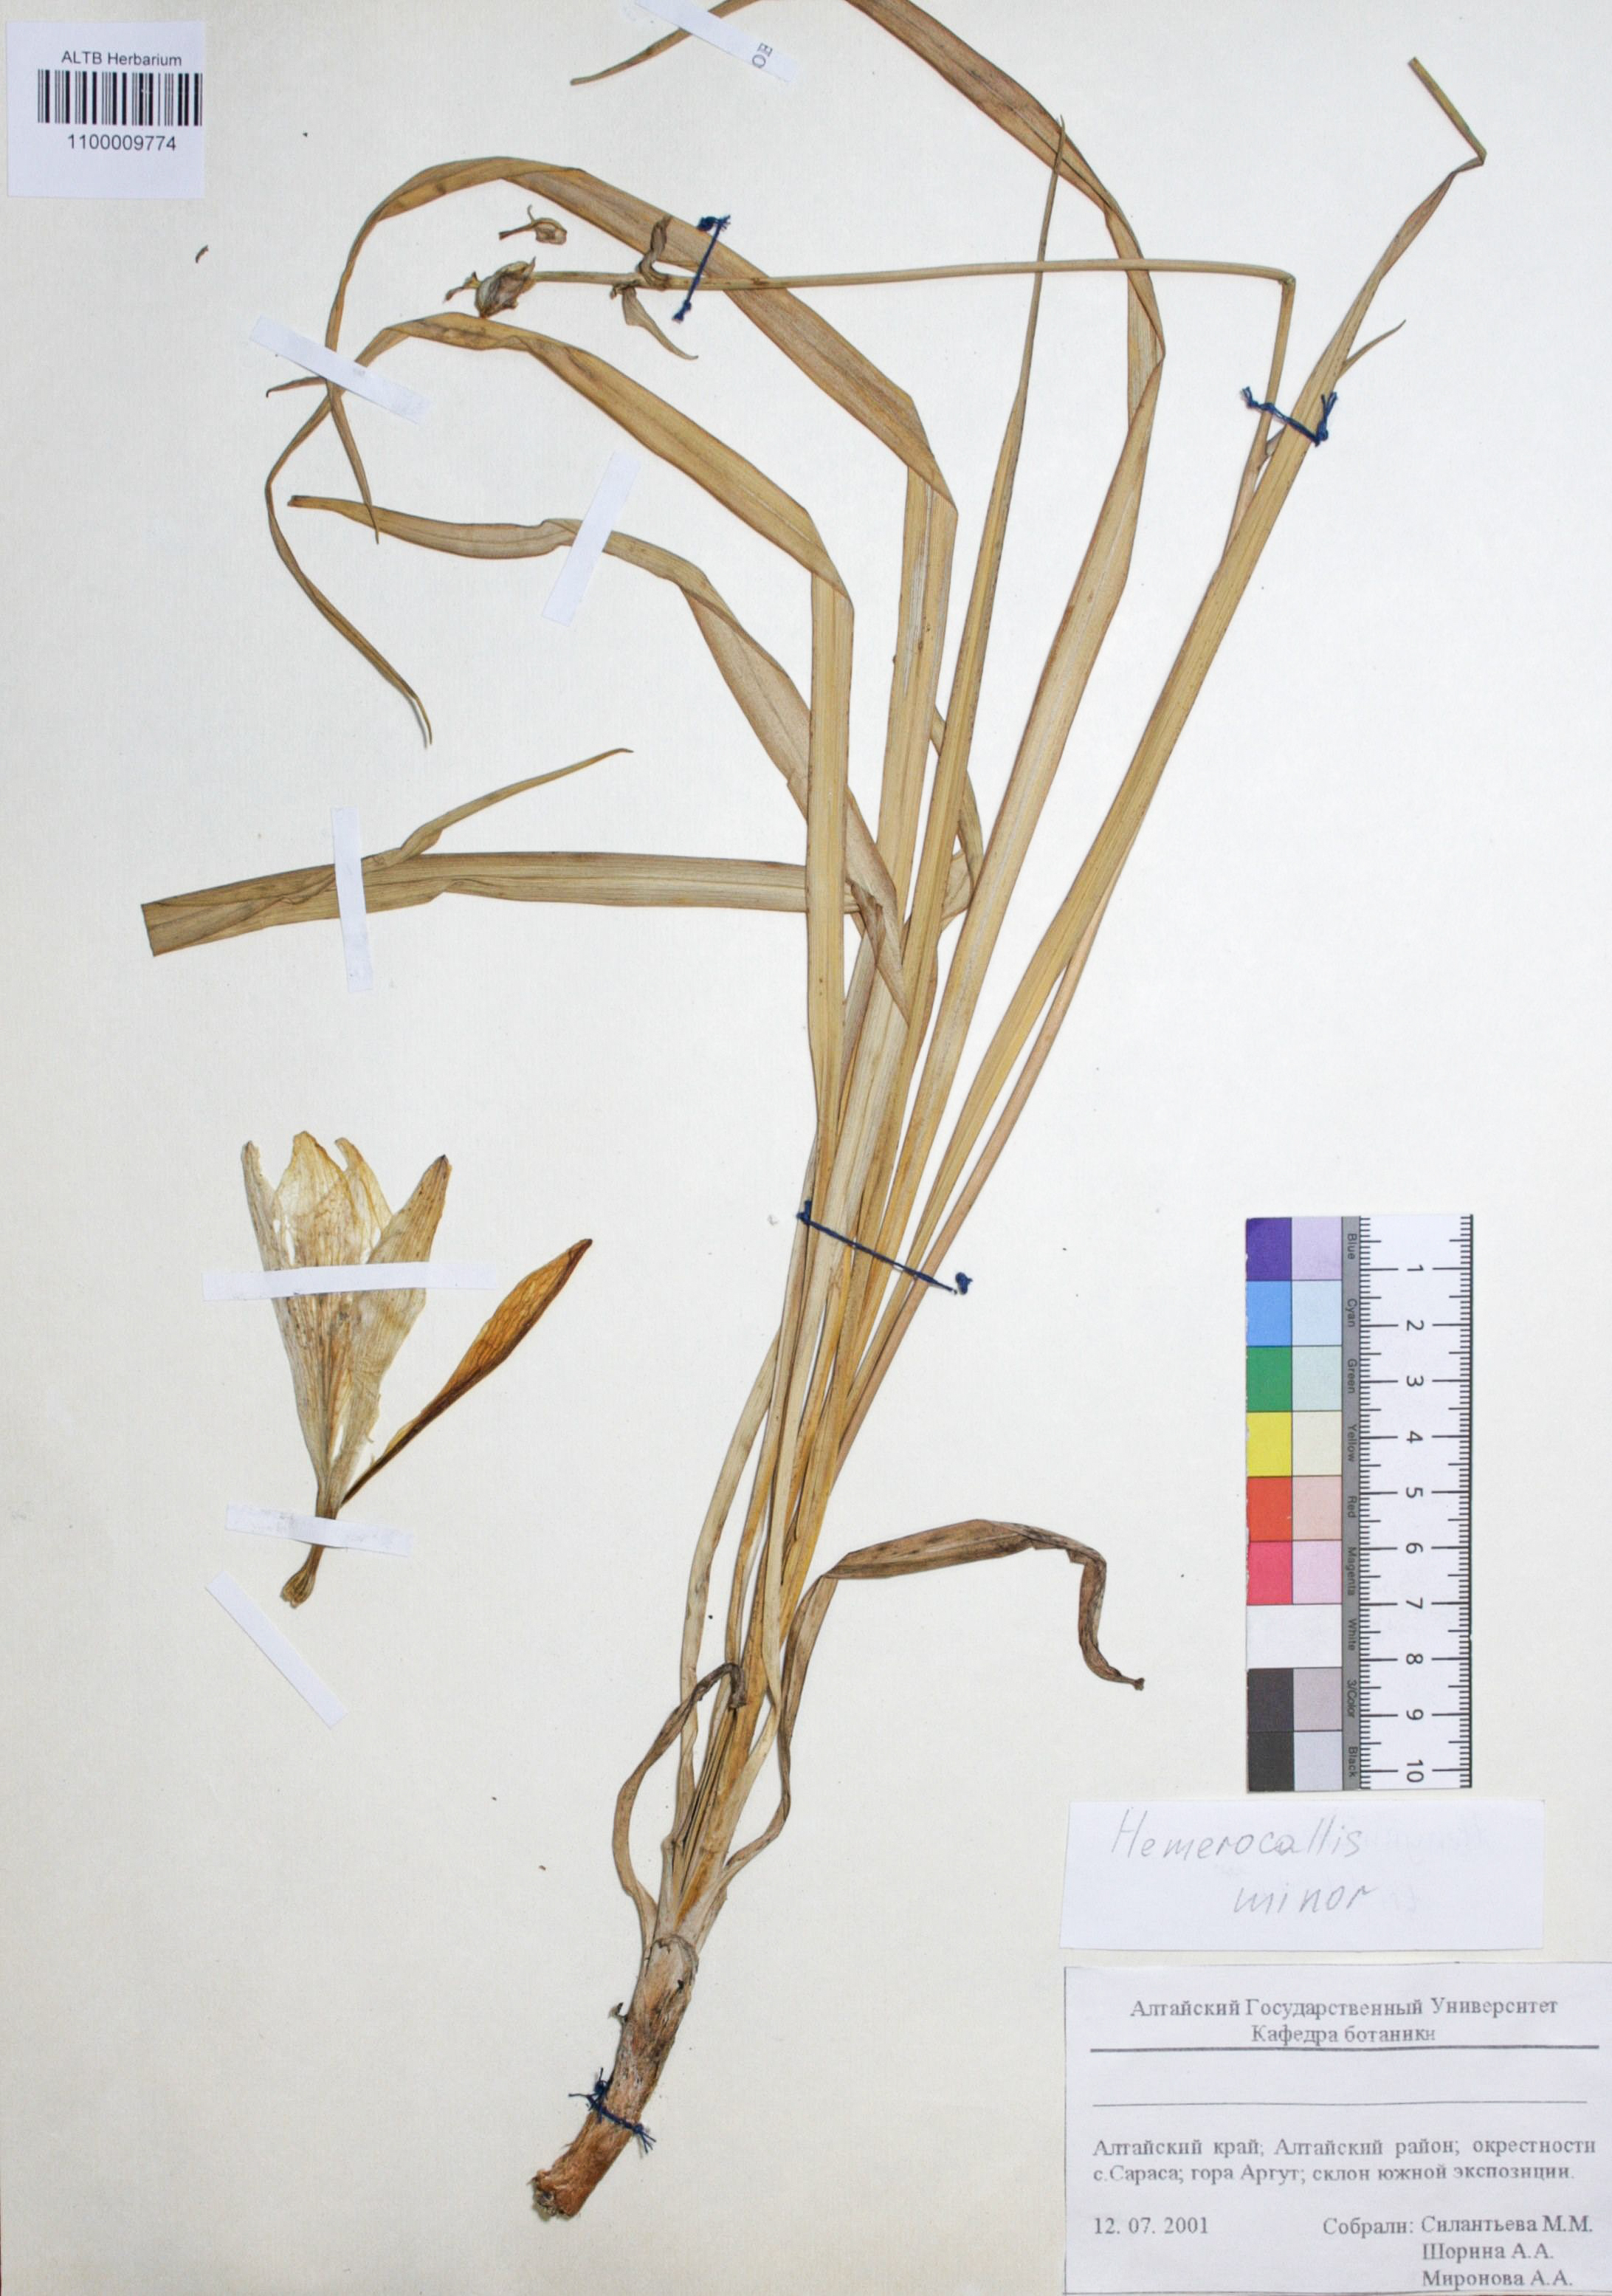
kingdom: Plantae
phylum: Tracheophyta
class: Liliopsida
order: Asparagales
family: Asphodelaceae
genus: Hemerocallis
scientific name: Hemerocallis minor
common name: Small daylily
